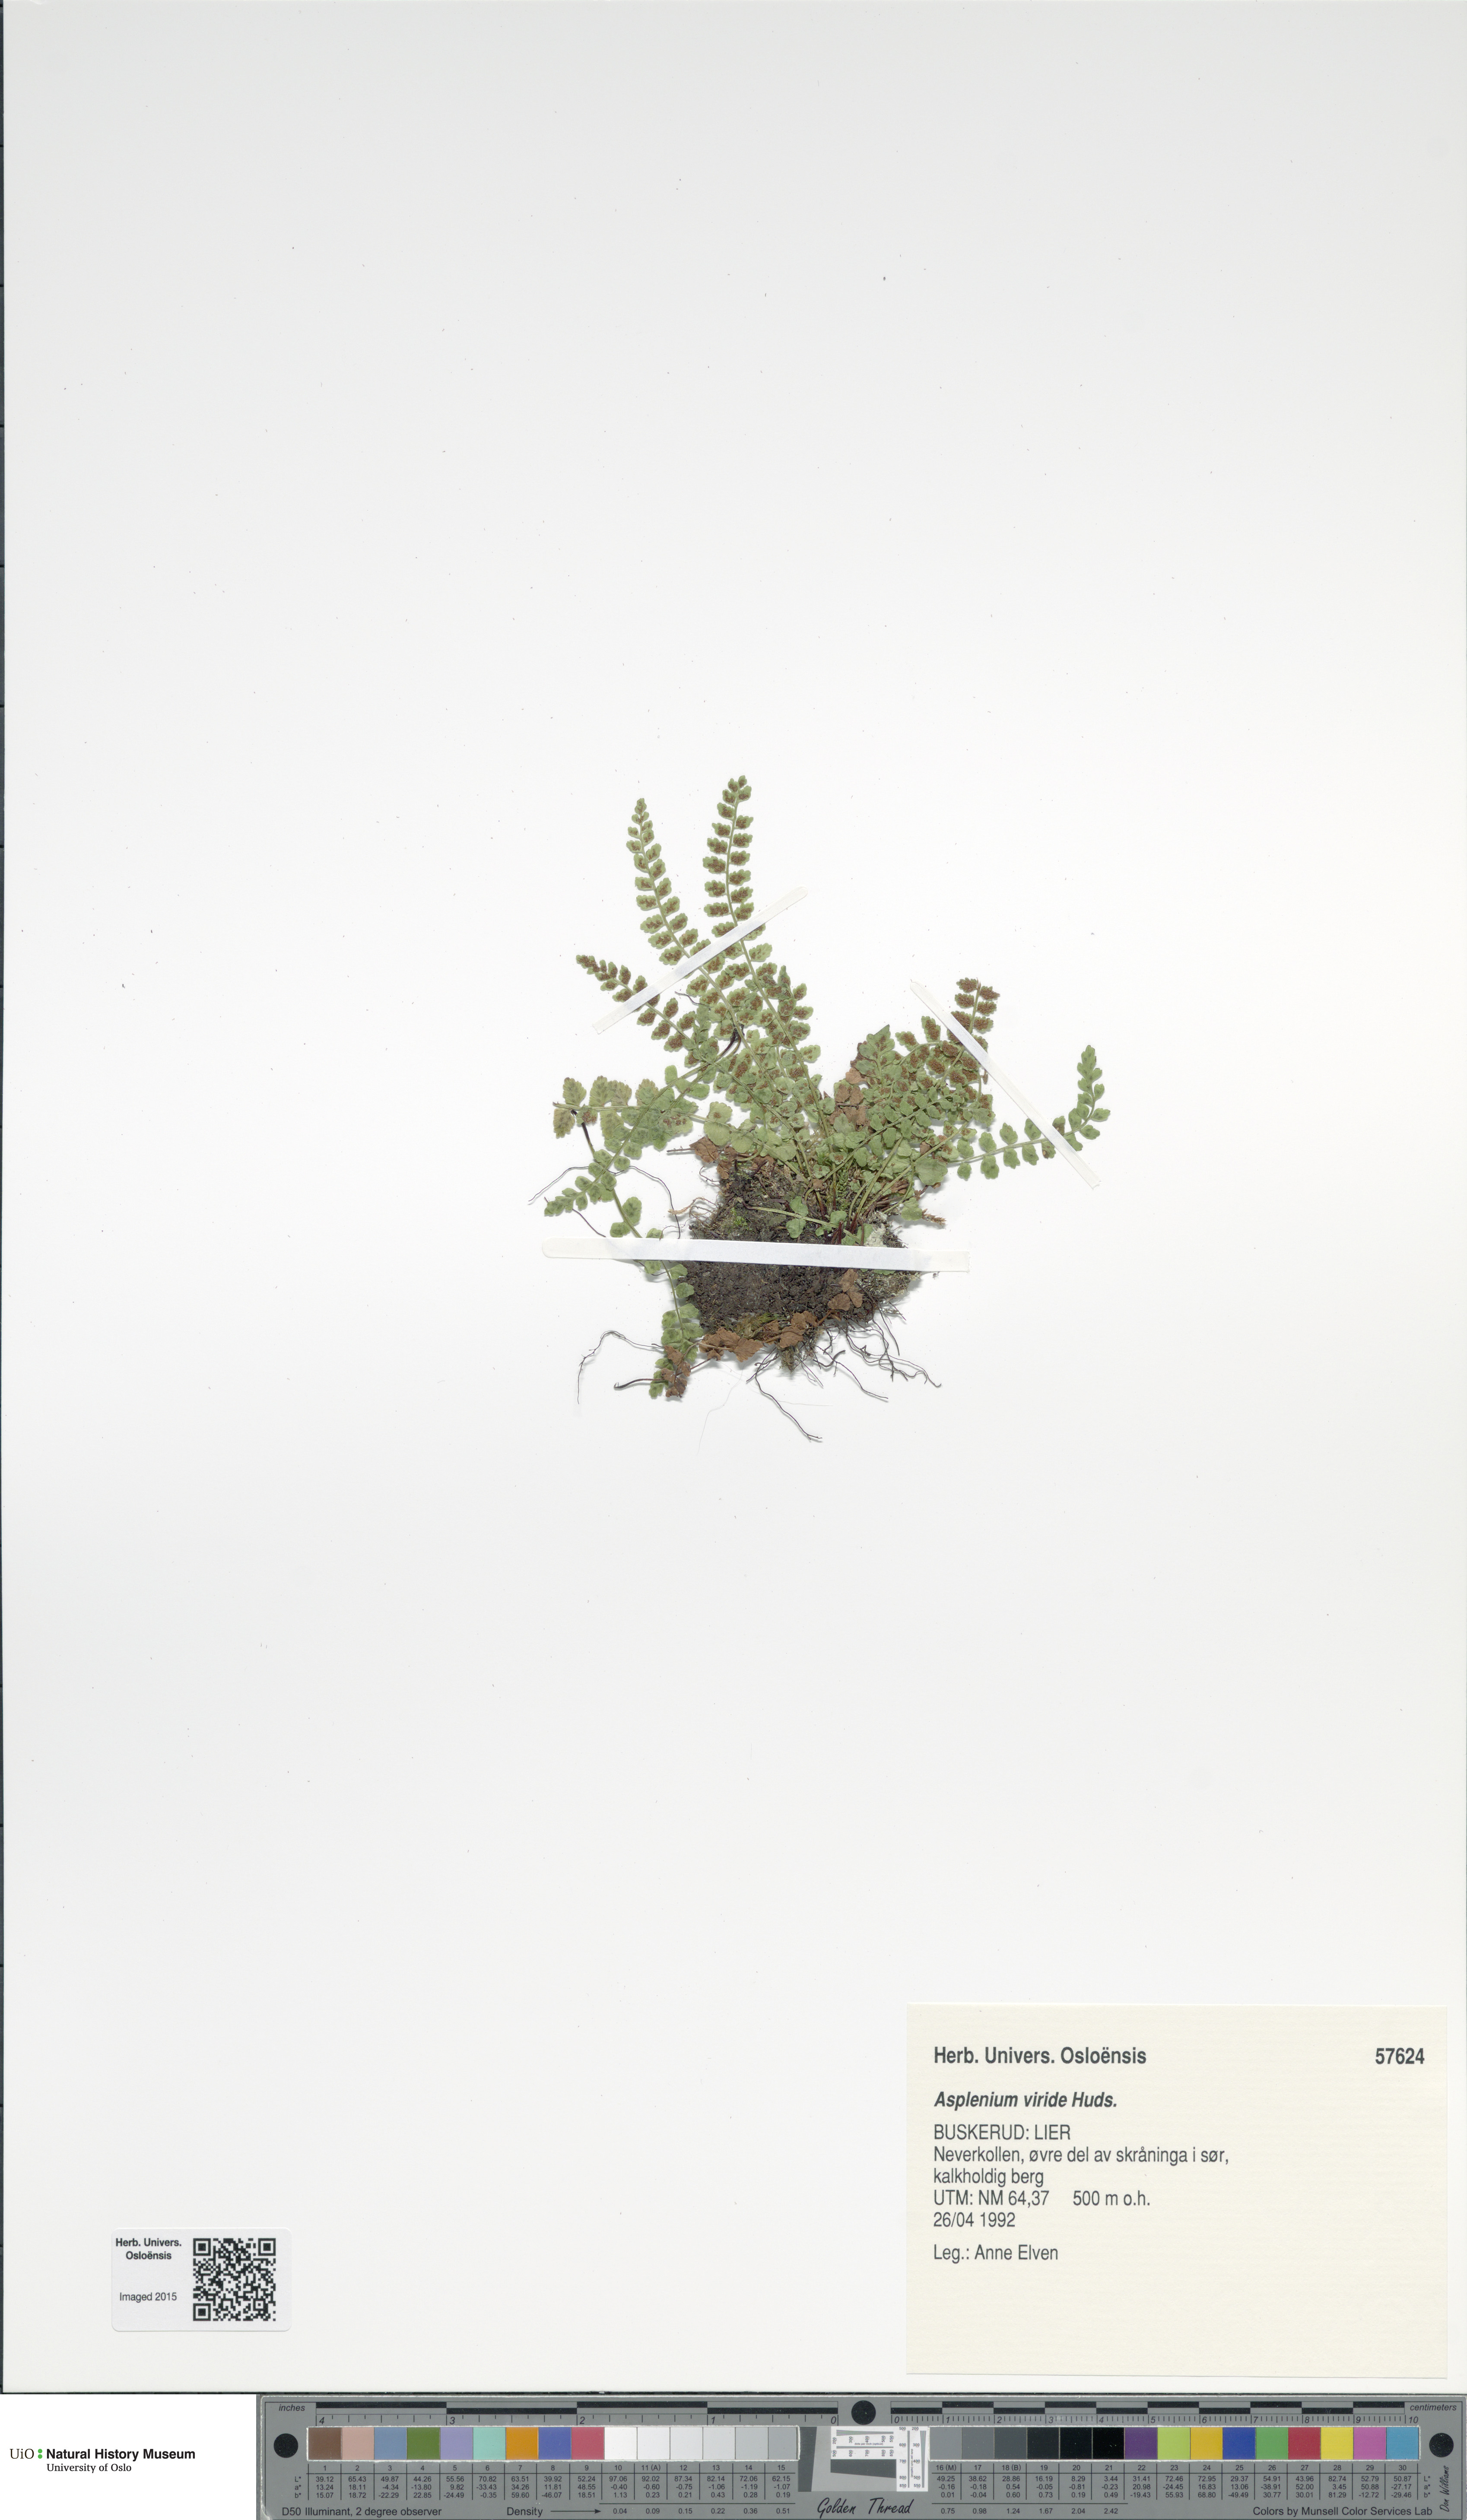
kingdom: Plantae
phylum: Tracheophyta
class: Polypodiopsida
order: Polypodiales
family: Aspleniaceae
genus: Asplenium
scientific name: Asplenium viride
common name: Green spleenwort
